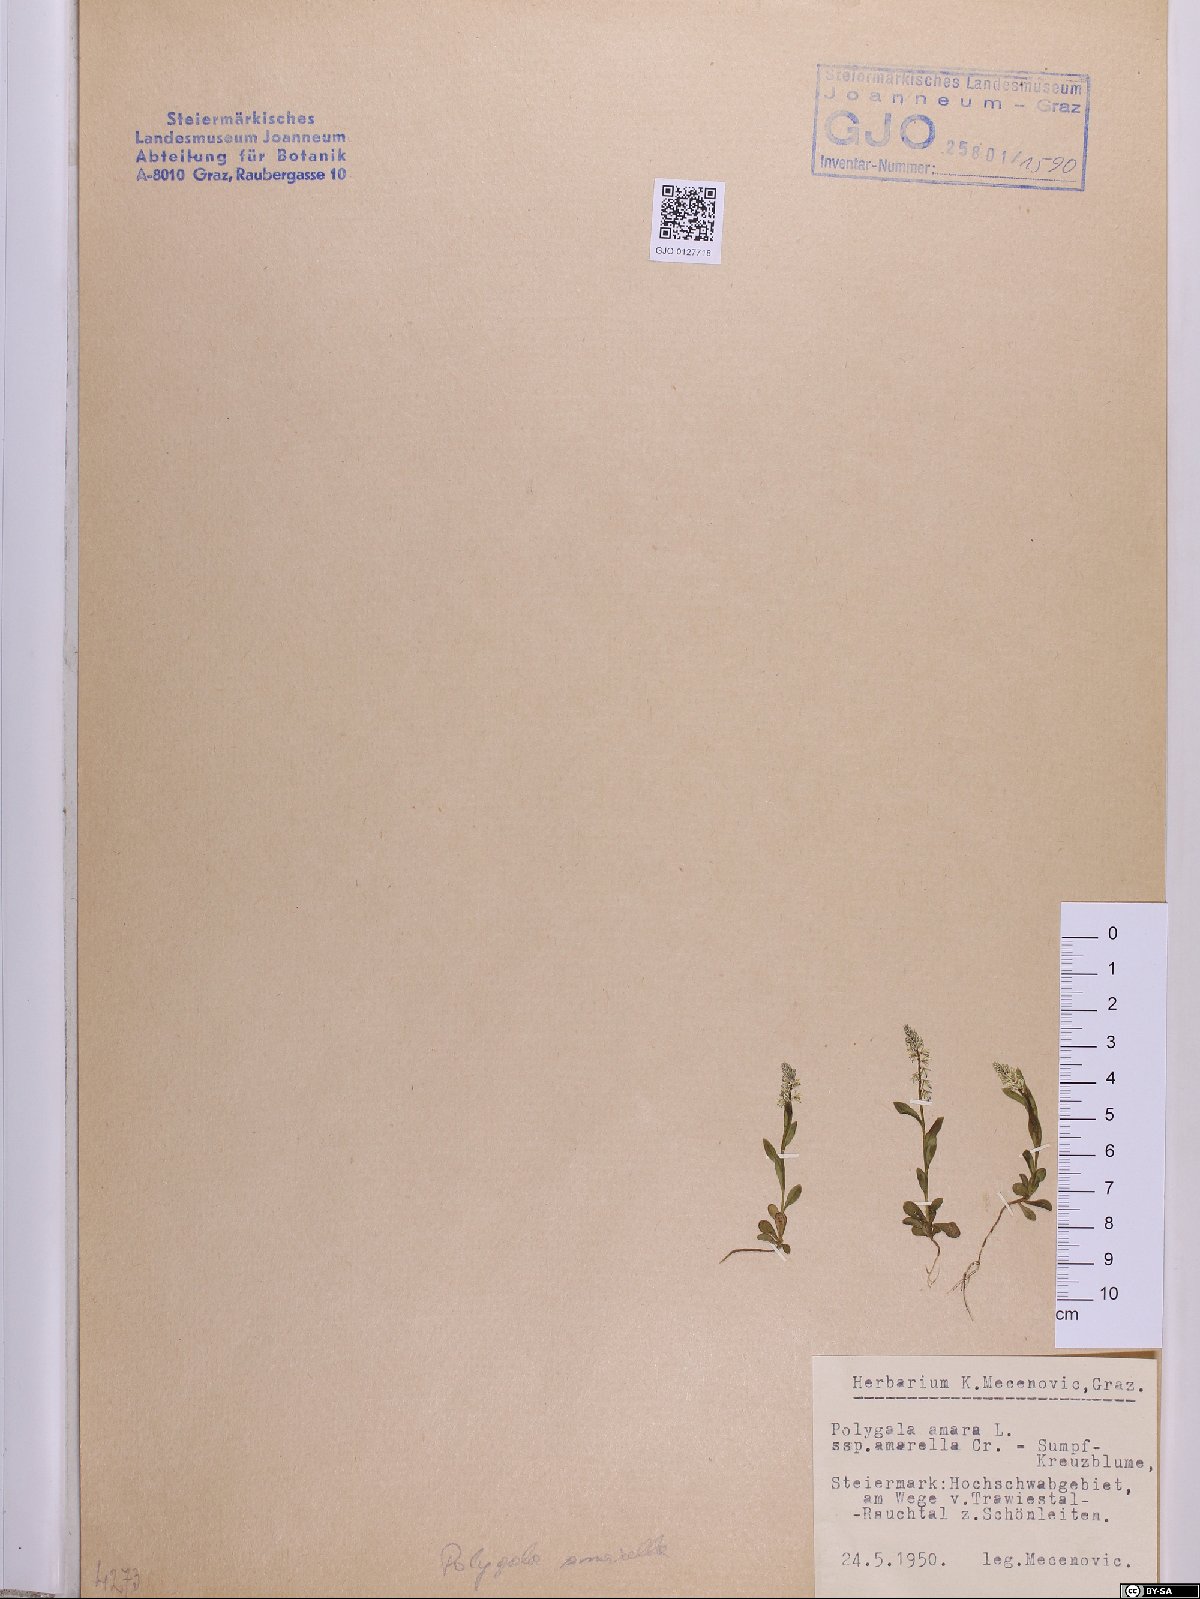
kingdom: Plantae
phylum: Tracheophyta
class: Magnoliopsida
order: Fabales
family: Polygalaceae
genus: Polygala
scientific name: Polygala amarella
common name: Dwarf milkwort
